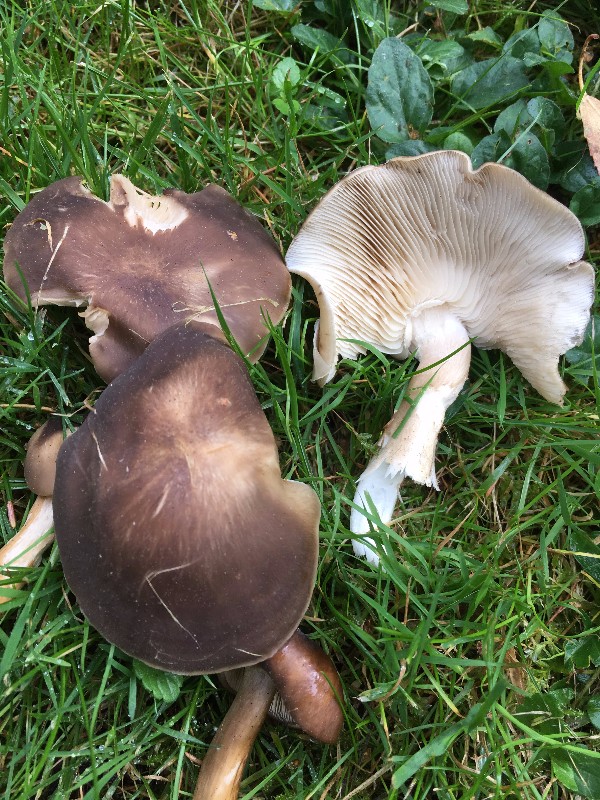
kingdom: Fungi
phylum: Basidiomycota
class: Agaricomycetes
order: Agaricales
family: Lyophyllaceae
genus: Lyophyllum
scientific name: Lyophyllum decastes
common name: Clustered domecap
